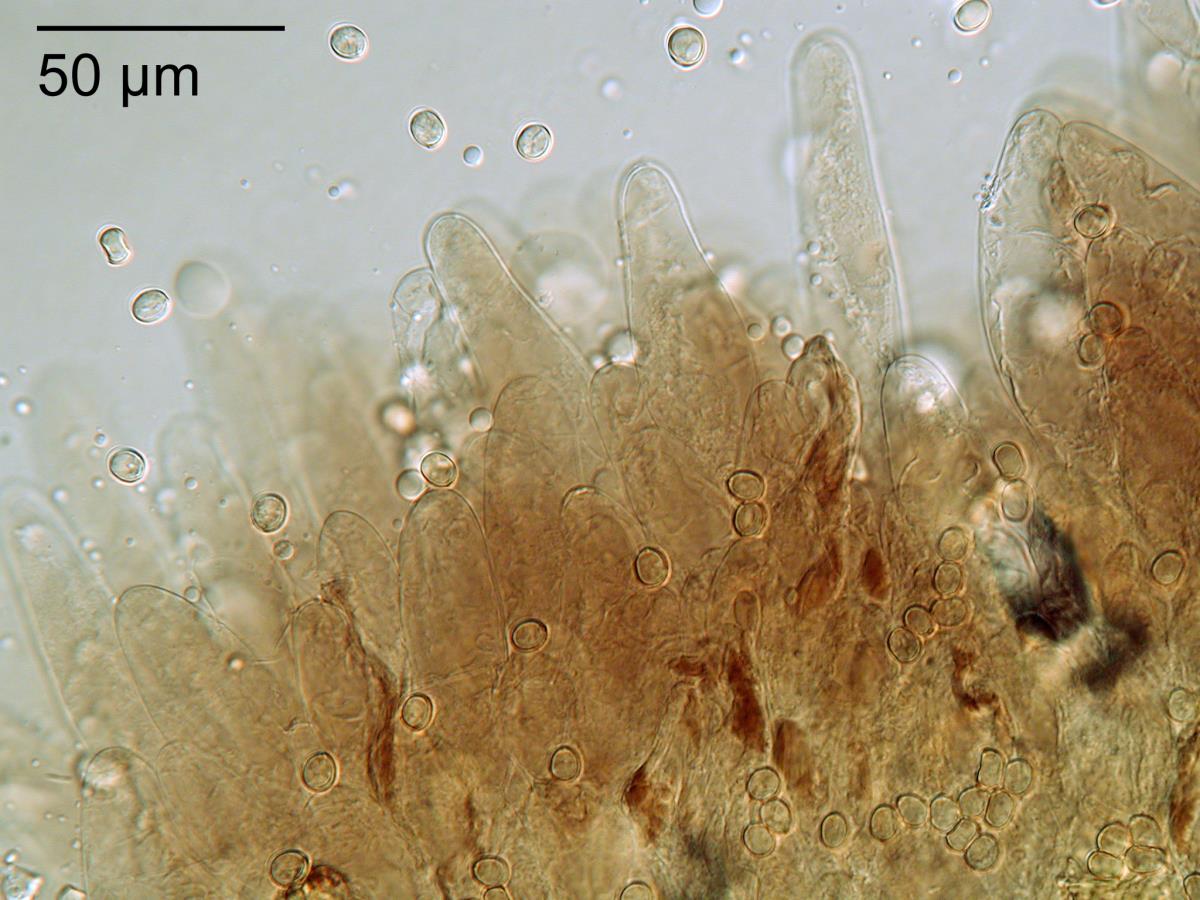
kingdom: Fungi
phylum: Basidiomycota
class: Agaricomycetes
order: Agaricales
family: Pluteaceae
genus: Pluteus
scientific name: Pluteus
